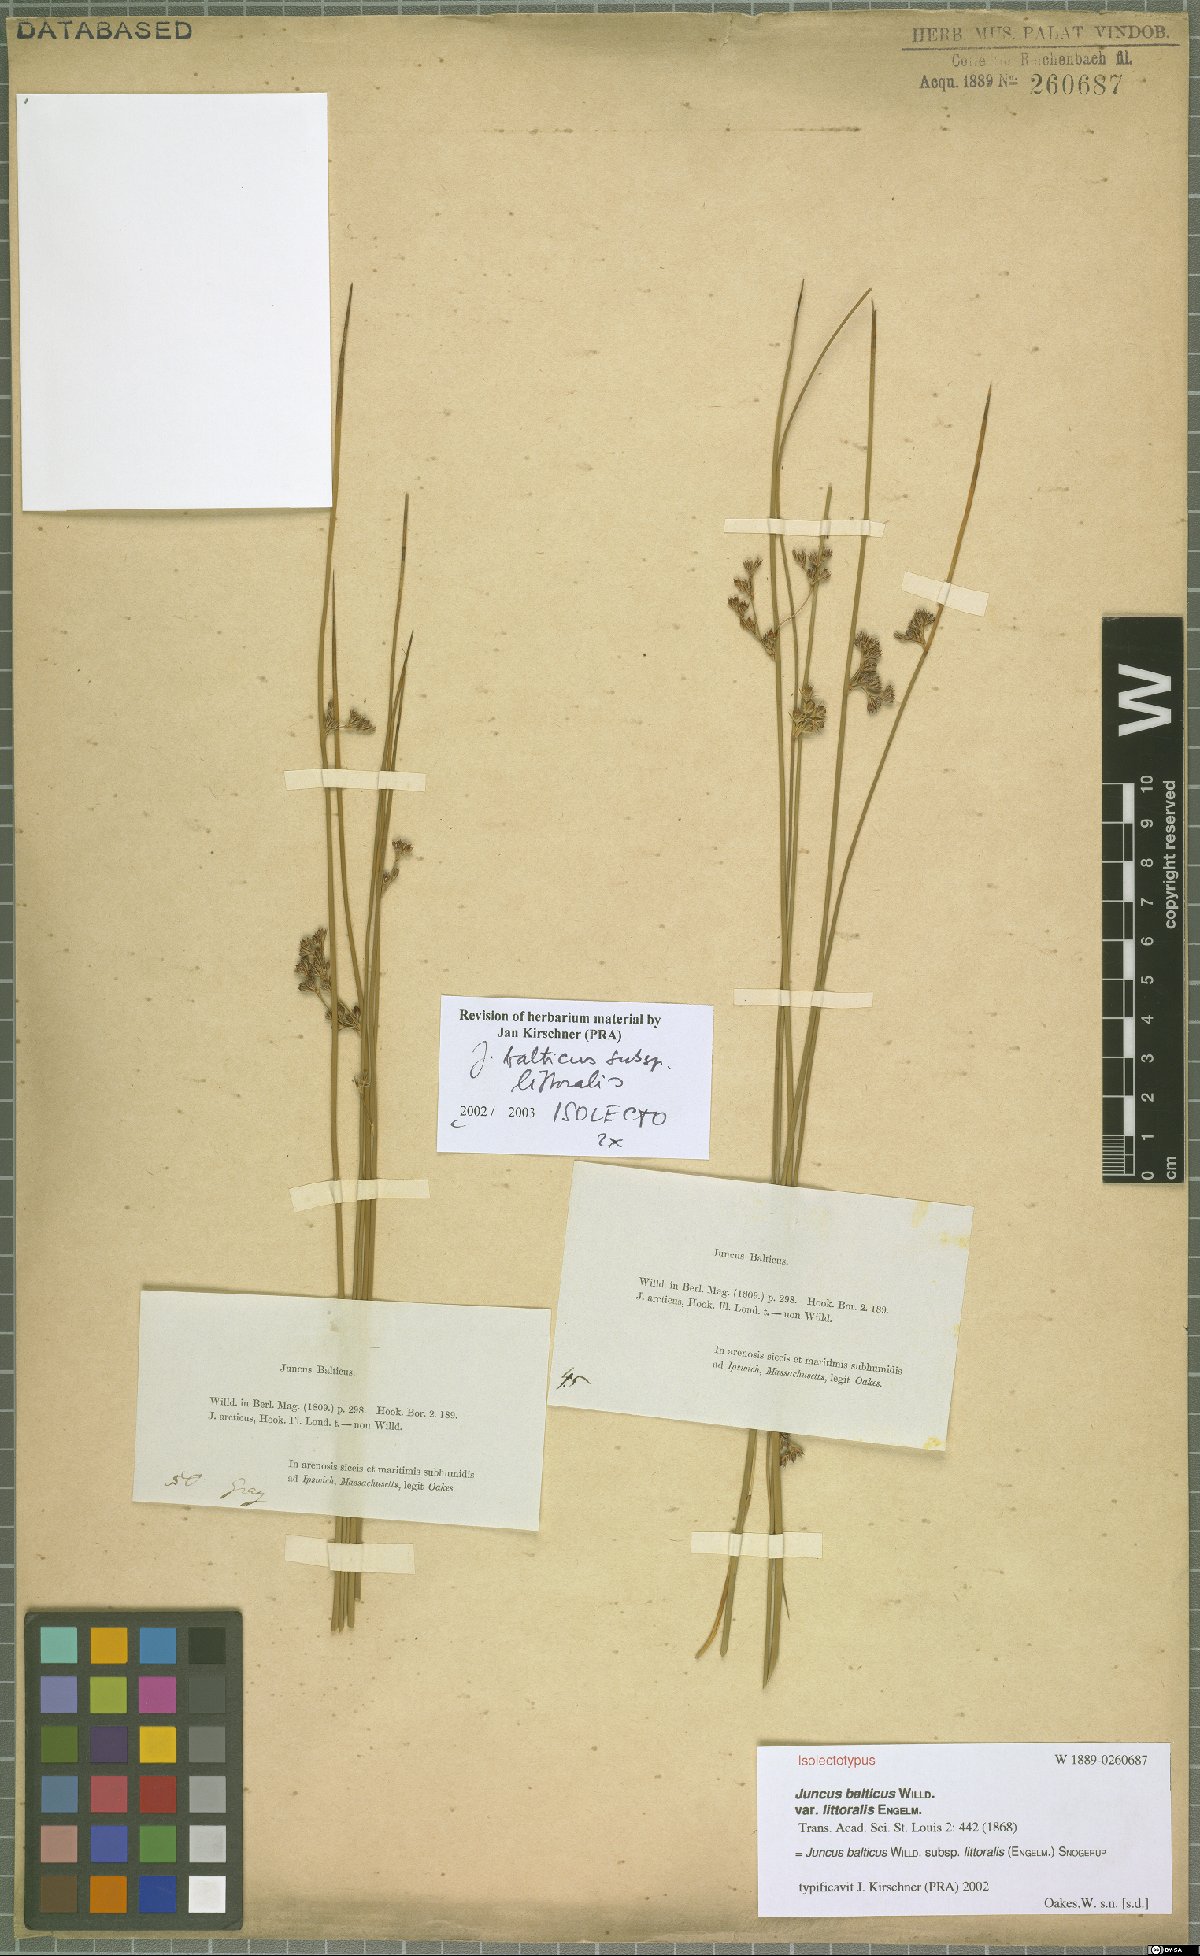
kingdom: Plantae
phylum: Tracheophyta
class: Liliopsida
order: Poales
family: Juncaceae
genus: Juncus
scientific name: Juncus balticus
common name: Baltic rush
